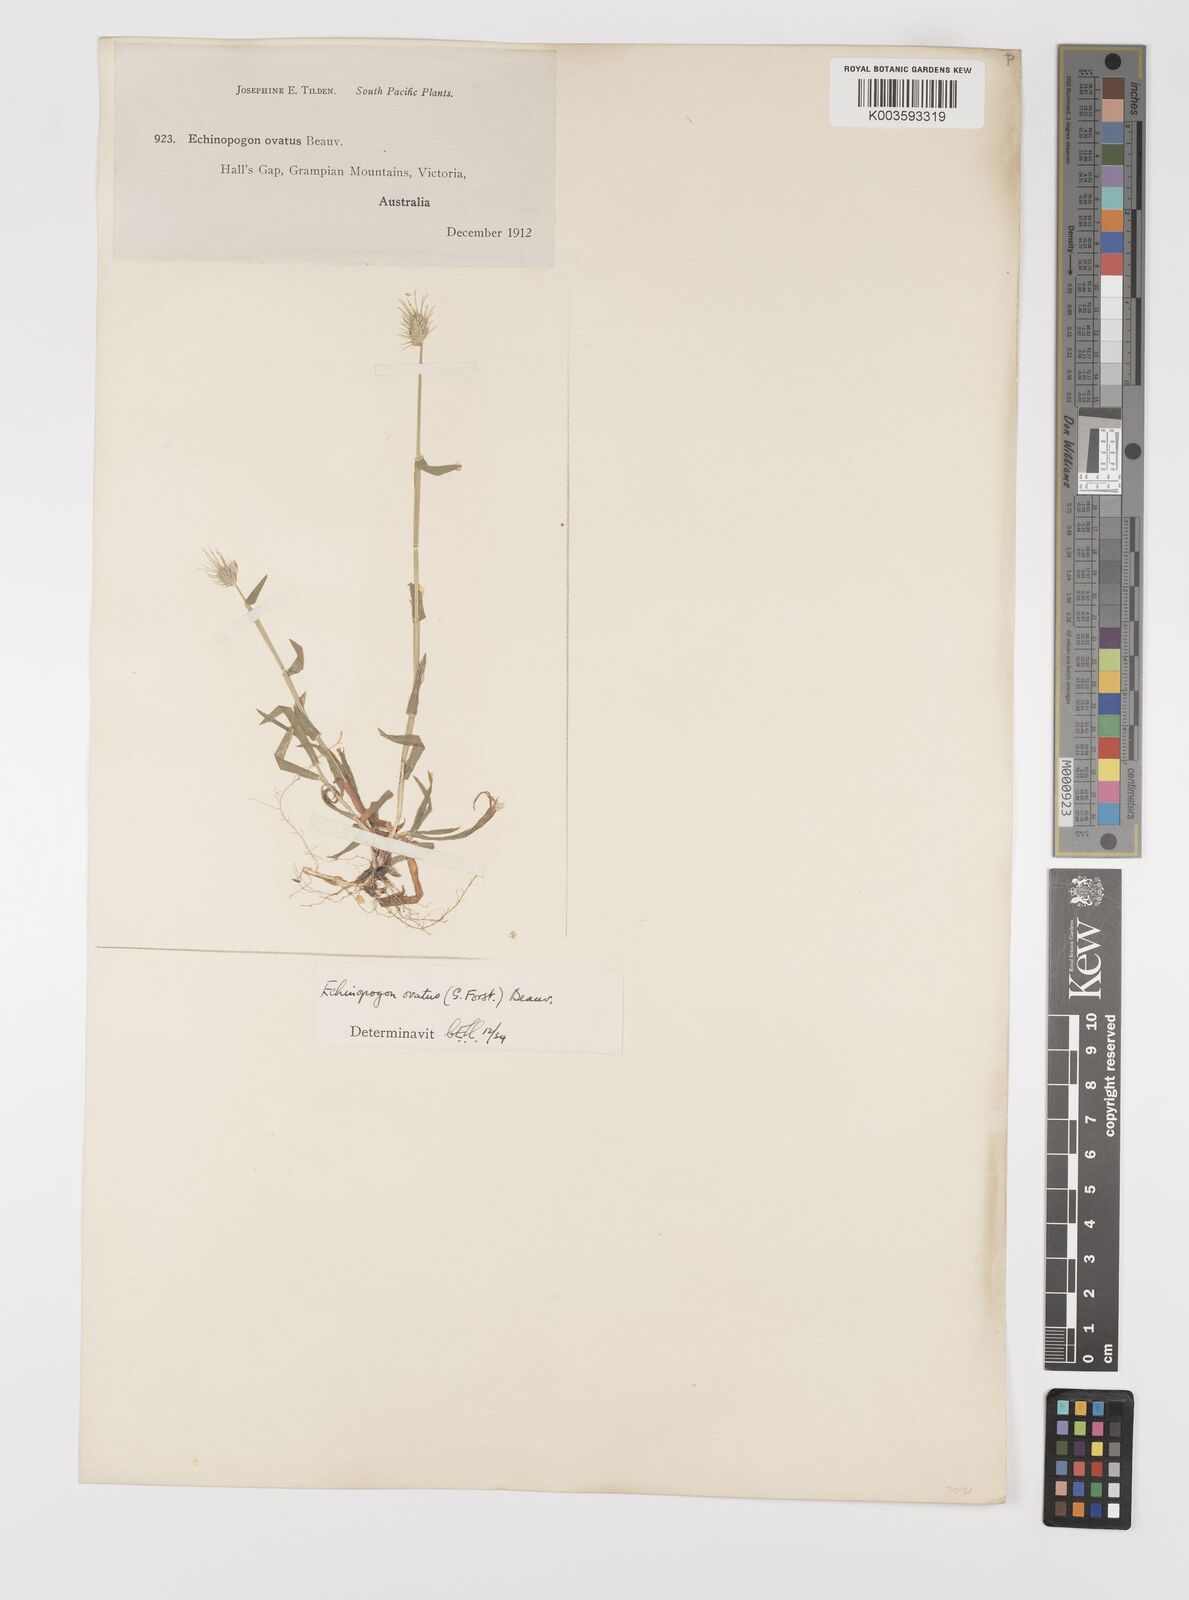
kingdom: Plantae
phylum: Tracheophyta
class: Liliopsida
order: Poales
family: Poaceae
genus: Echinopogon
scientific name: Echinopogon ovatus
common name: Hedgehog-grass
